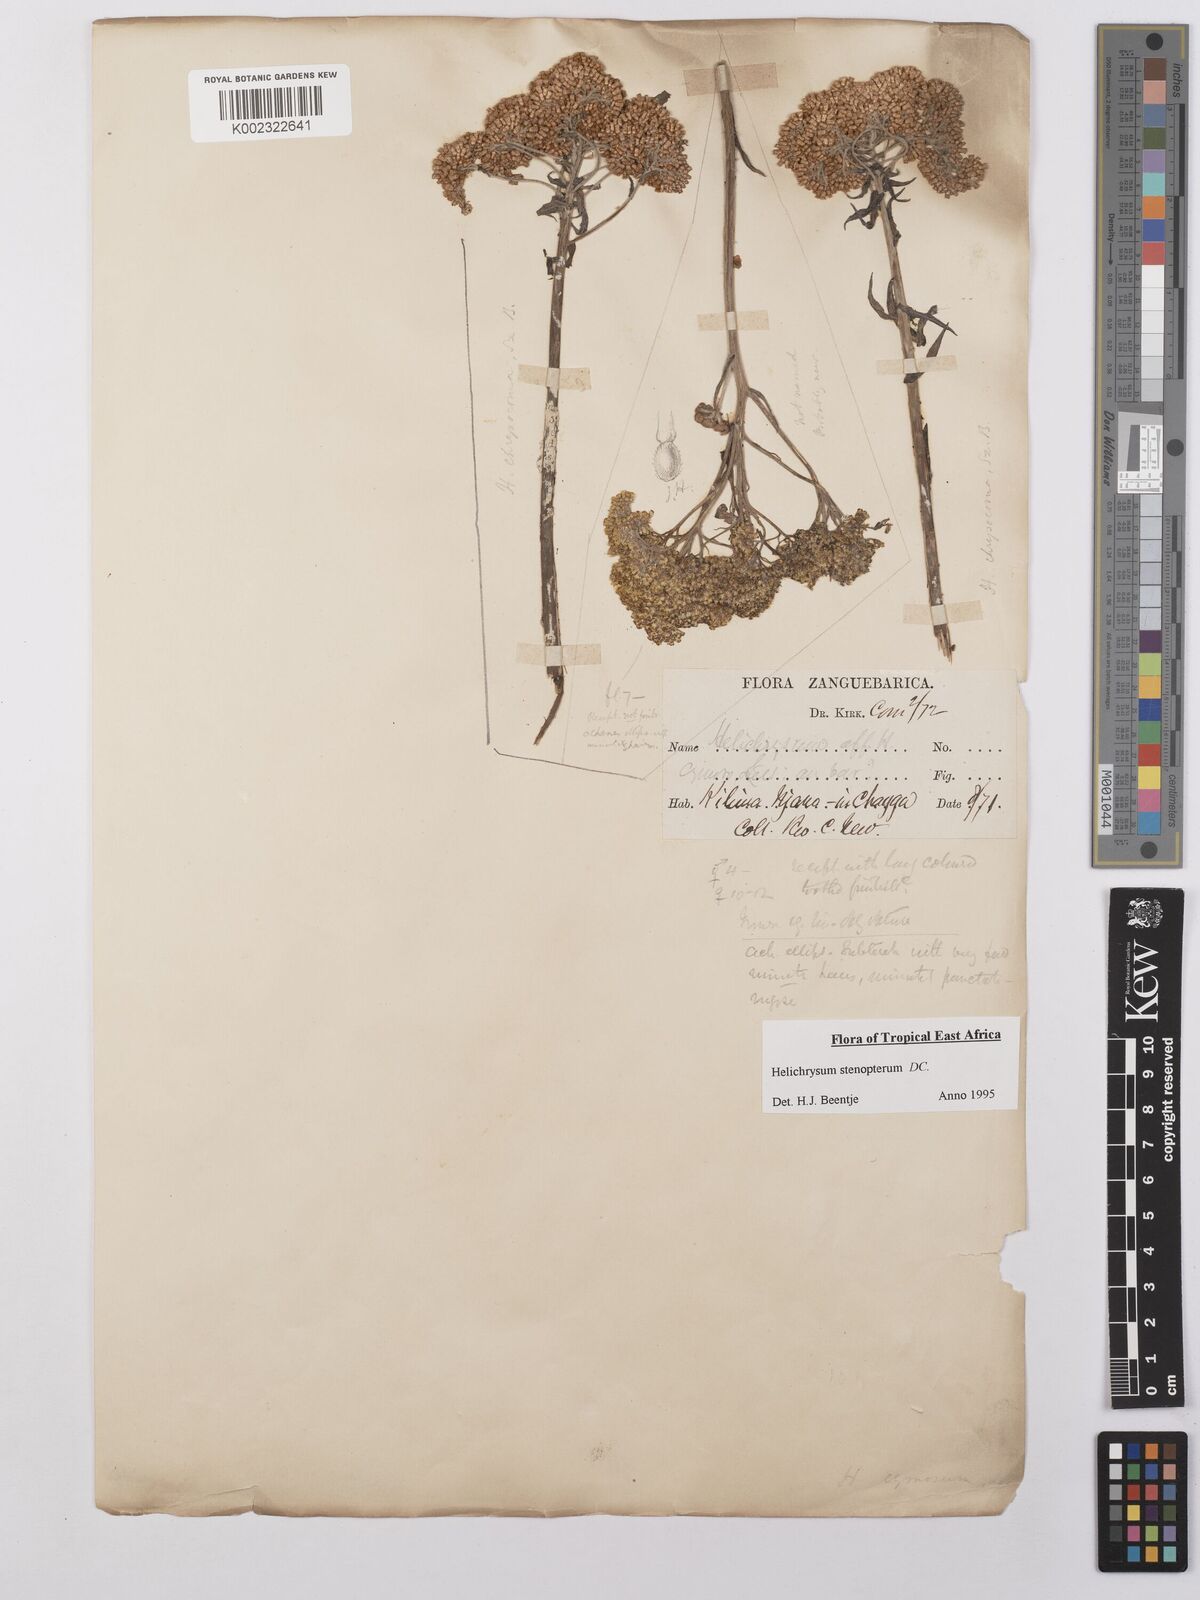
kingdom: Plantae
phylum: Tracheophyta
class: Magnoliopsida
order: Asterales
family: Asteraceae
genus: Helichrysum
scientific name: Helichrysum stenopterum
